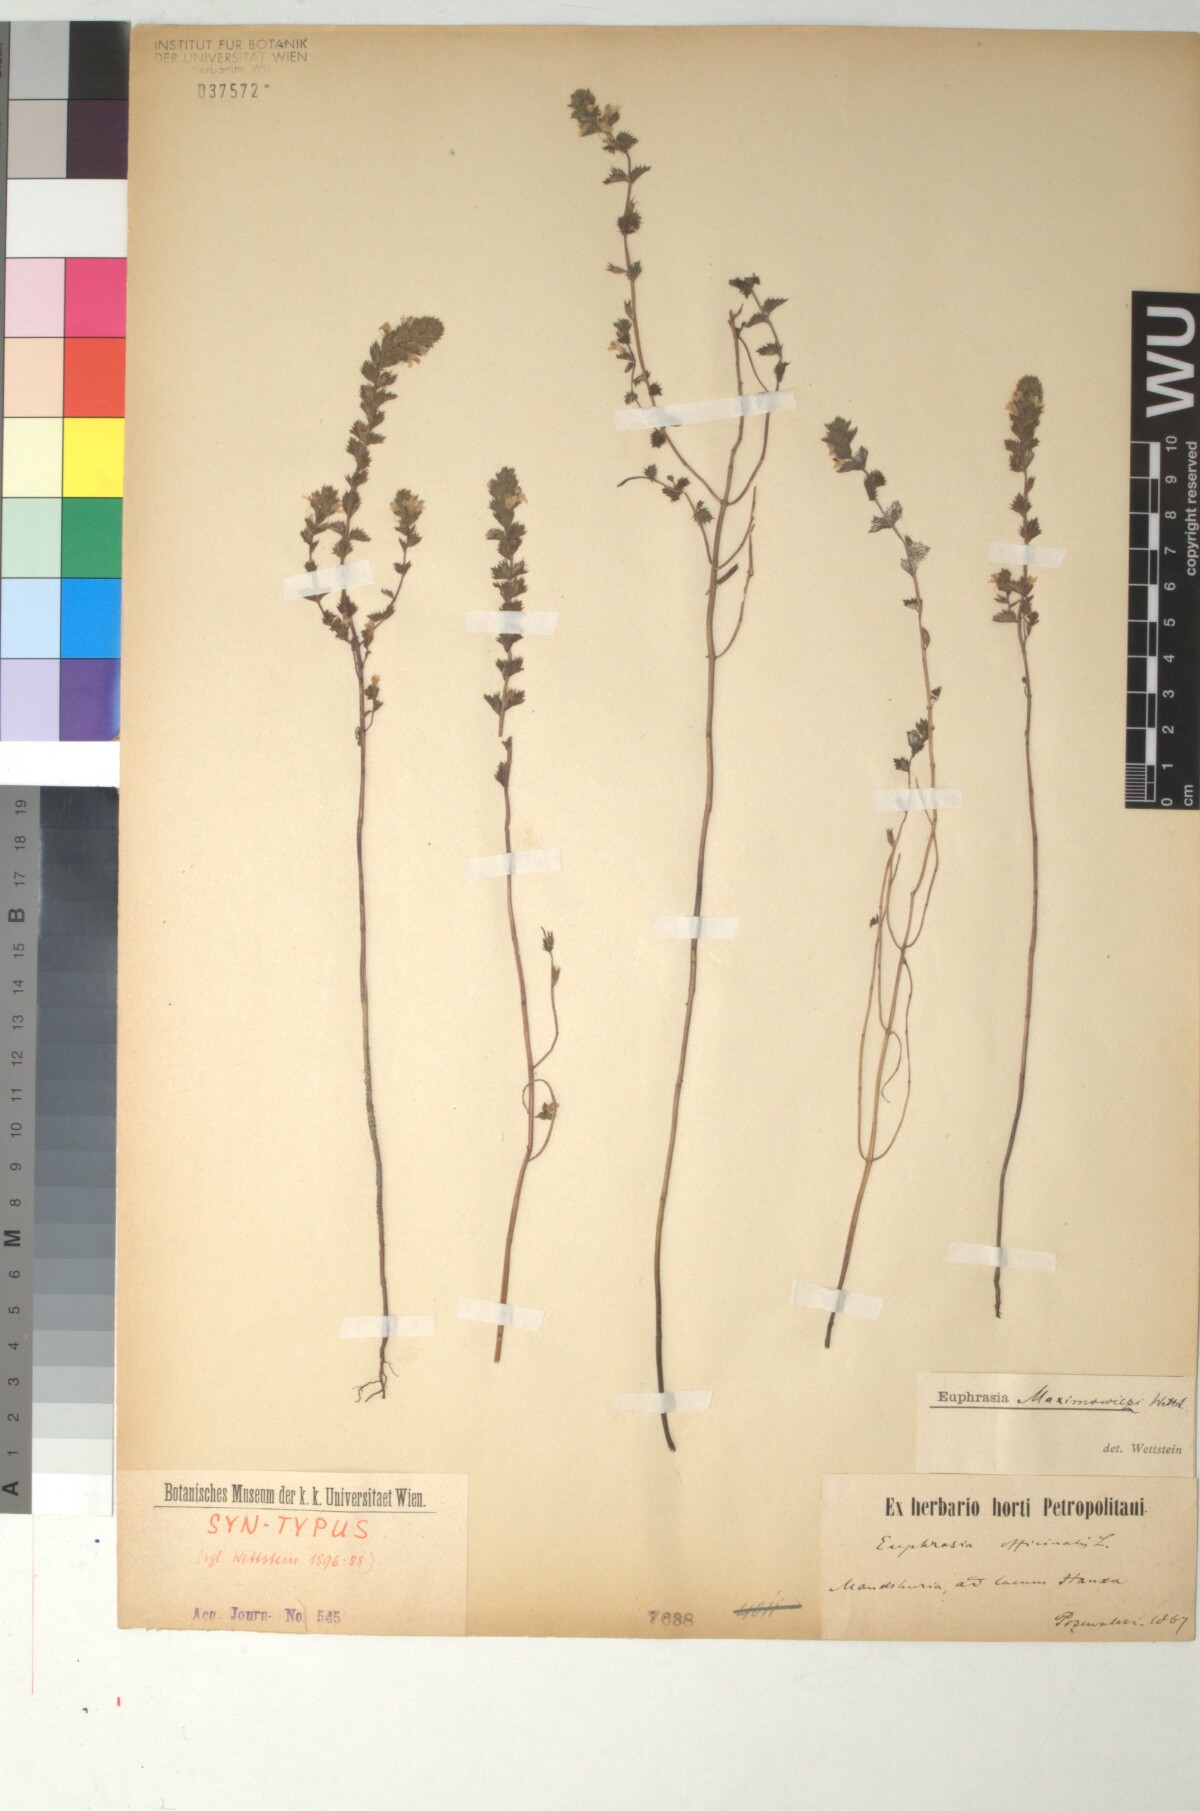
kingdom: Plantae
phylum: Tracheophyta
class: Magnoliopsida
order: Lamiales
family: Orobanchaceae
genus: Euphrasia
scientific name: Euphrasia maximowiczii
